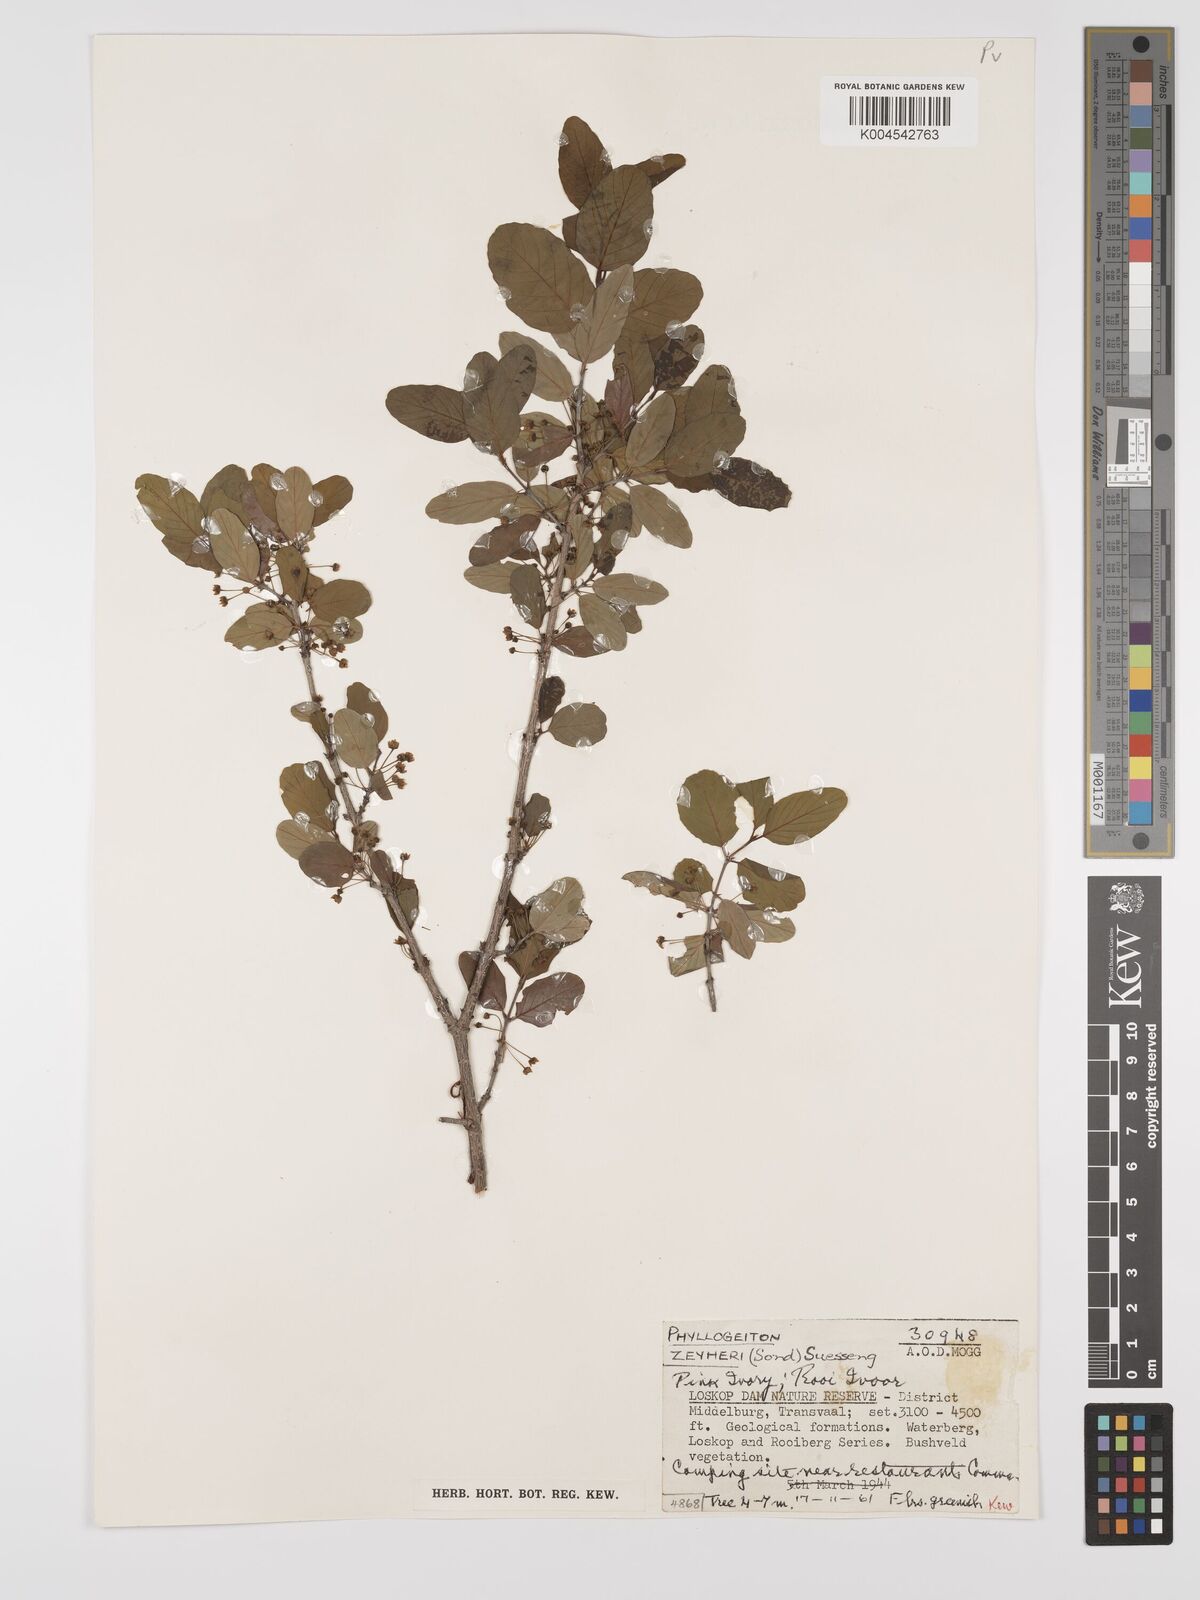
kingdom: Plantae
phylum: Tracheophyta
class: Magnoliopsida
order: Rosales
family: Rhamnaceae
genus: Phyllogeiton
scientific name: Phyllogeiton zeyheri
